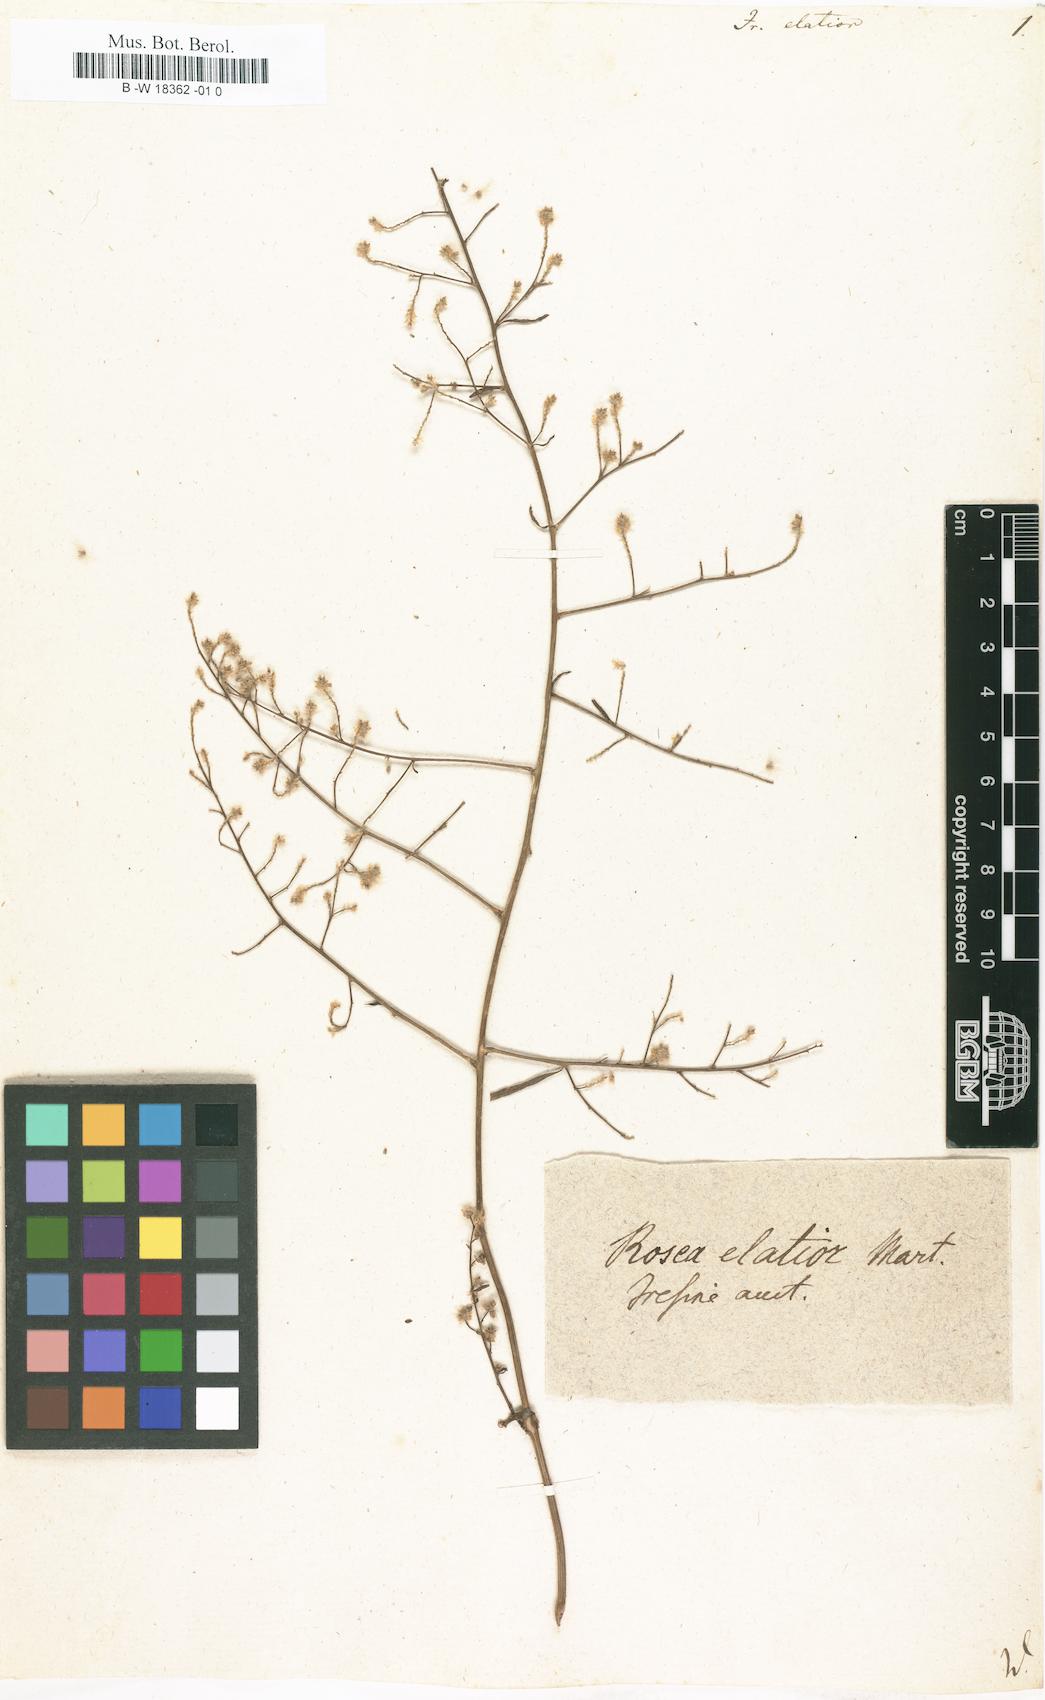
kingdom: Plantae
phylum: Tracheophyta
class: Magnoliopsida
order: Caryophyllales
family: Amaranthaceae
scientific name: Amaranthaceae
